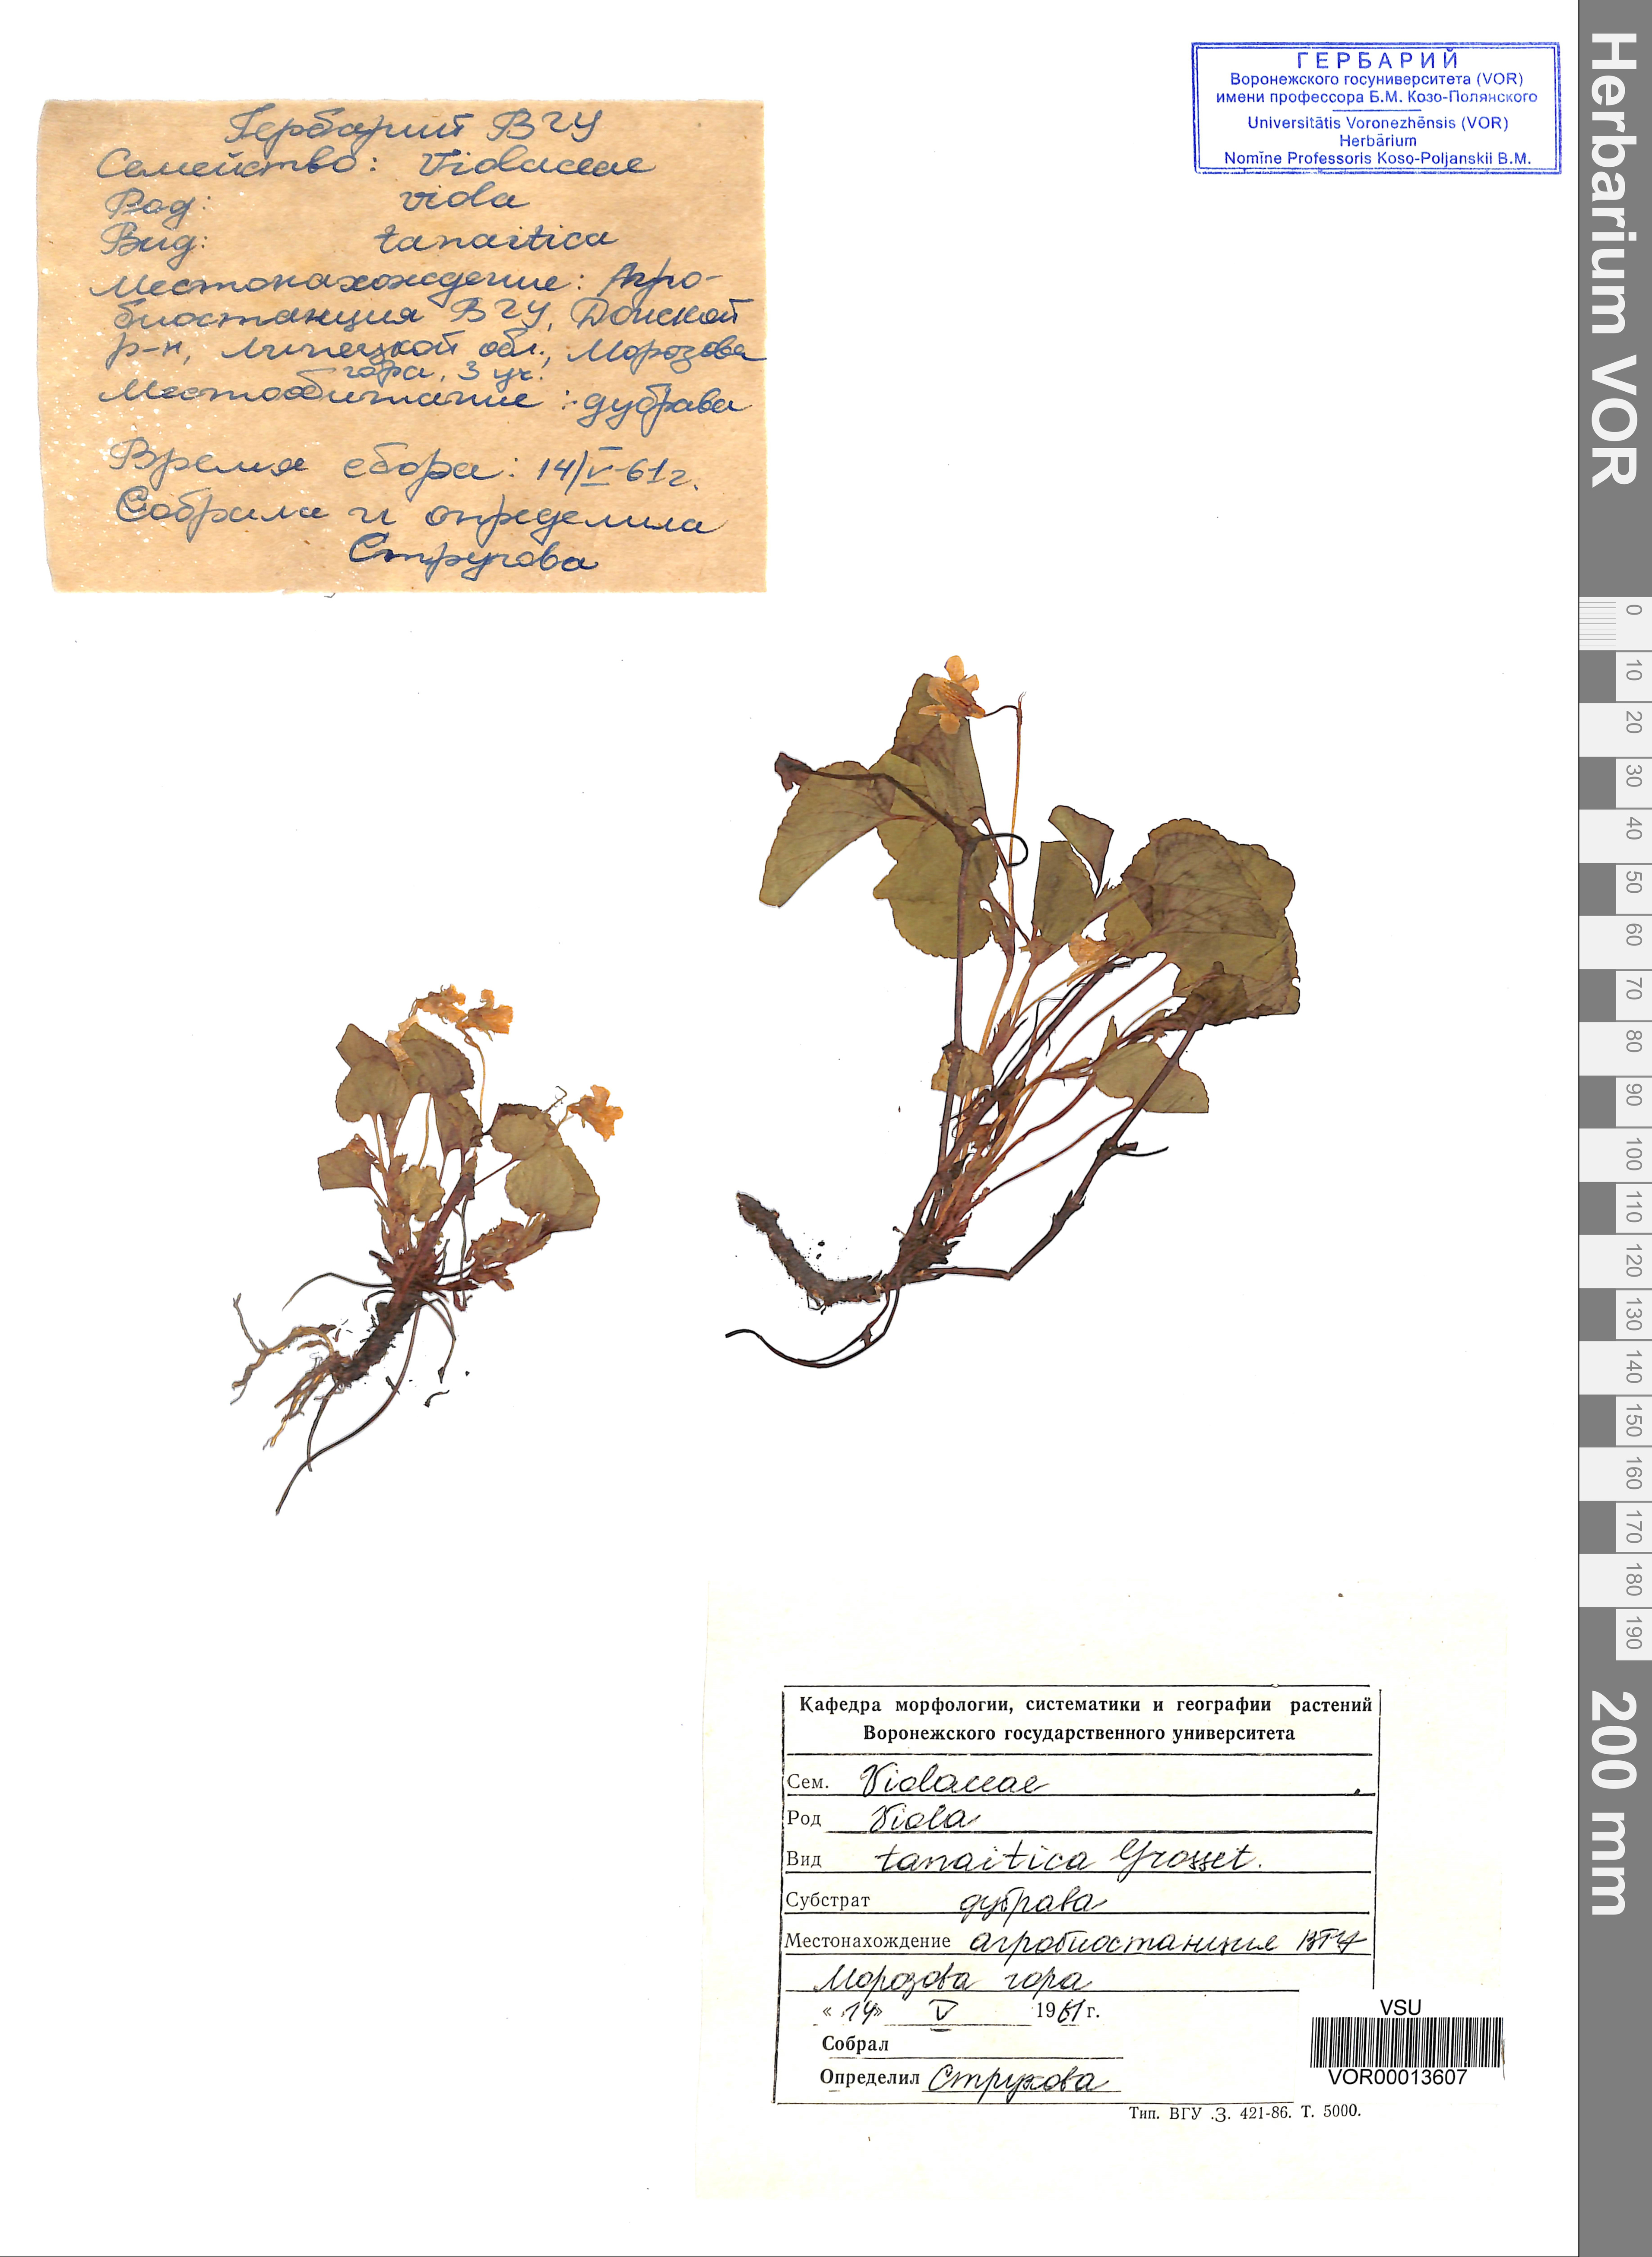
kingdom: Plantae
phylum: Tracheophyta
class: Magnoliopsida
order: Malpighiales
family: Violaceae
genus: Viola
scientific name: Viola tanaitica
